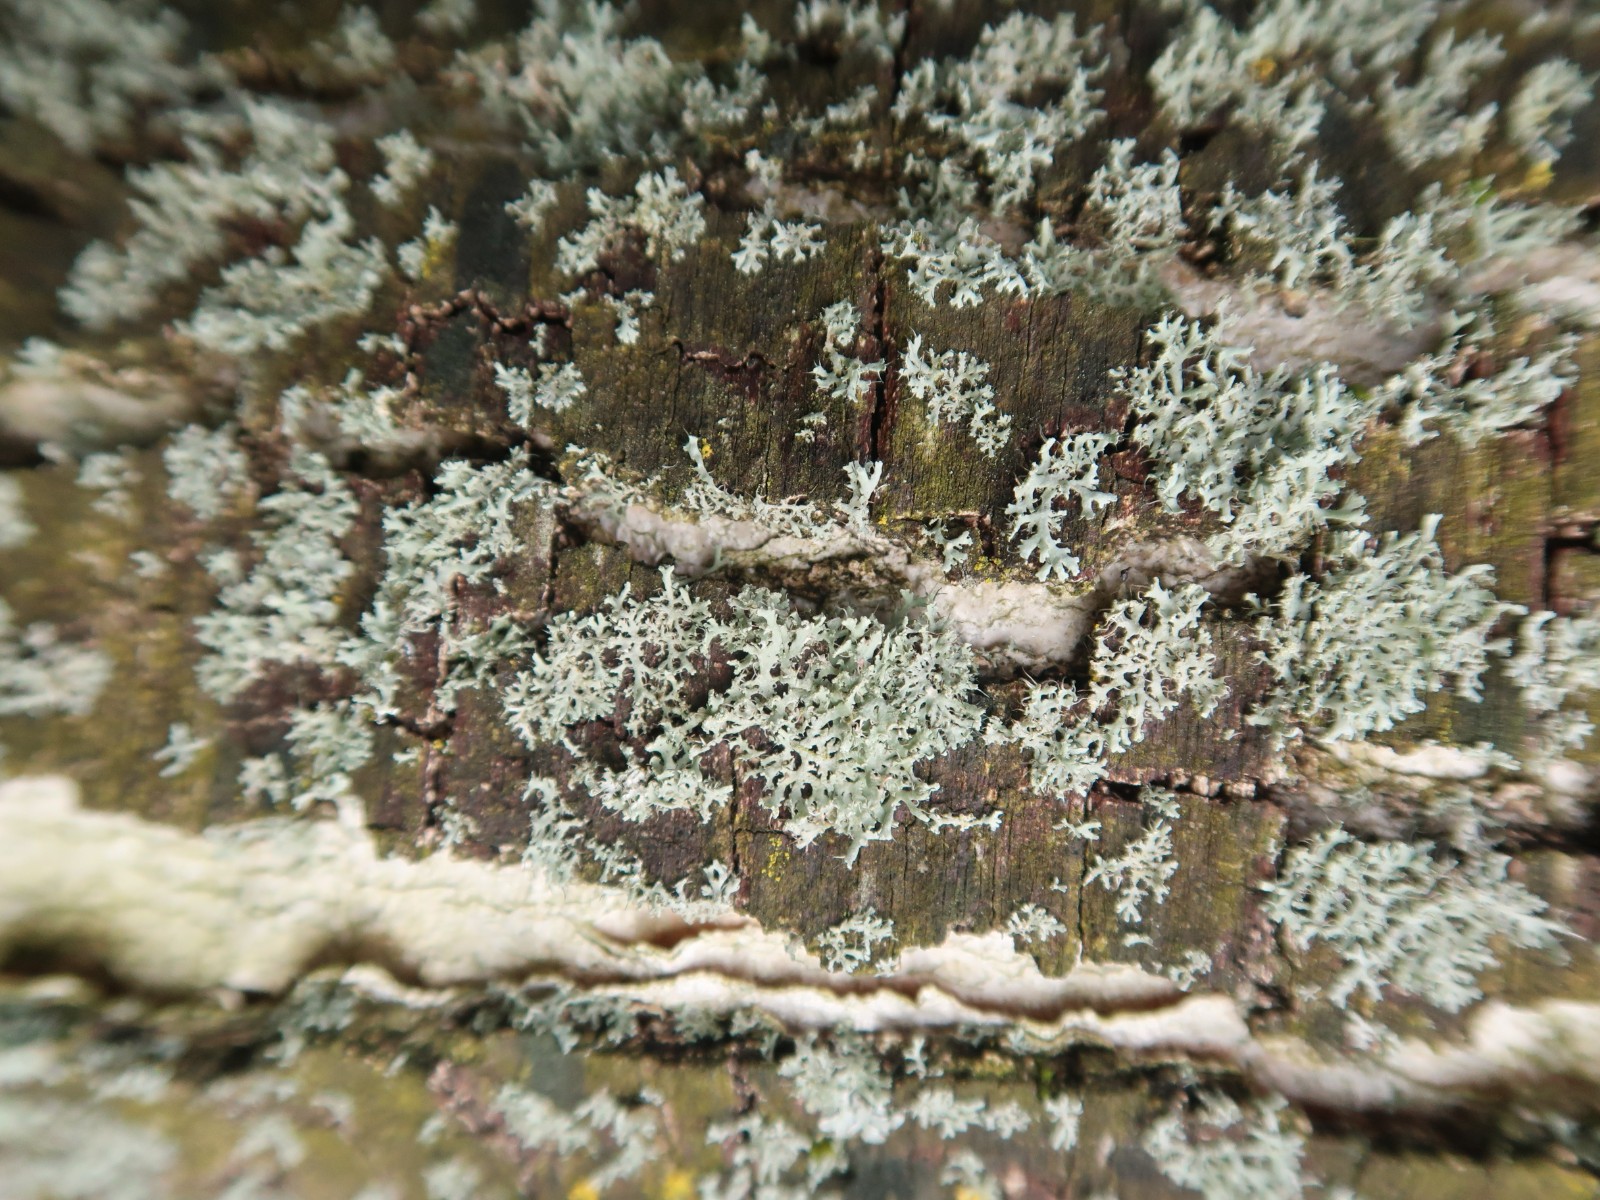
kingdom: Fungi
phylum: Ascomycota
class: Lecanoromycetes
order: Caliciales
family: Physciaceae
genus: Physcia
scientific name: Physcia tenella
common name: spæd rosetlav
